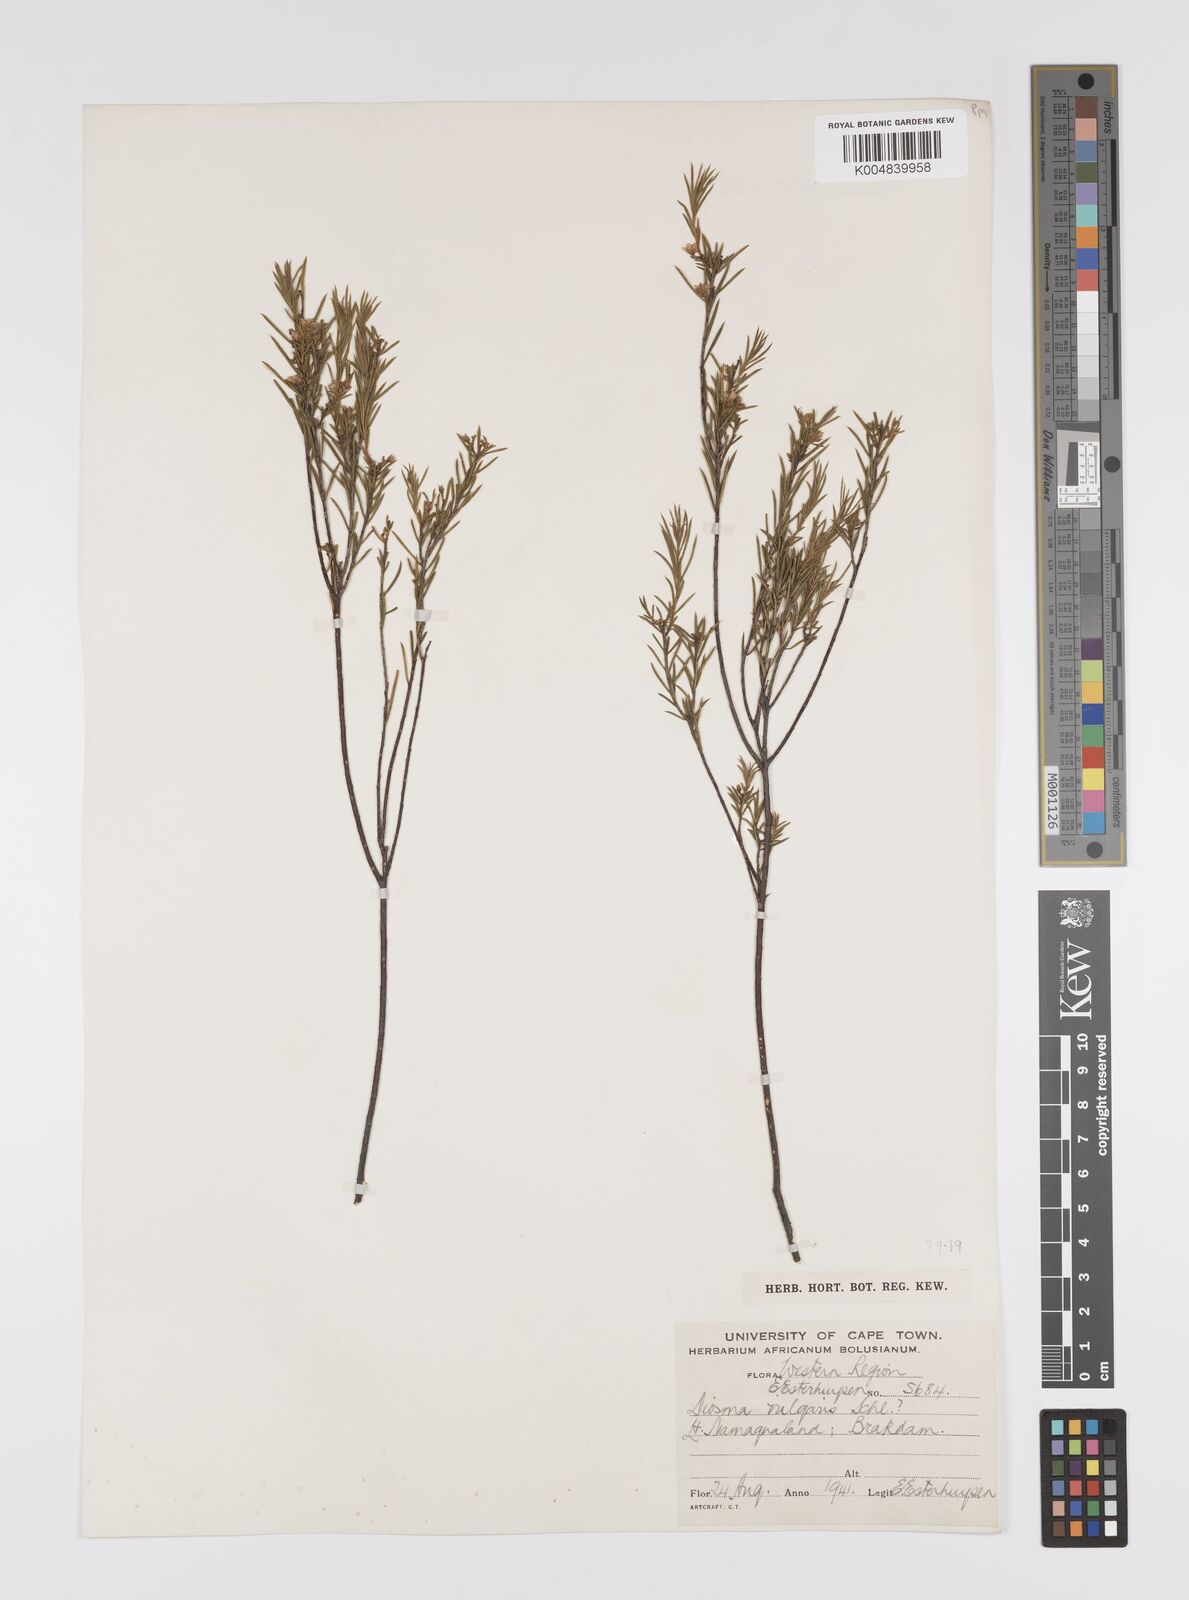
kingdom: Plantae
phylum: Tracheophyta
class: Magnoliopsida
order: Sapindales
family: Rutaceae
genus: Diosma
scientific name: Diosma acmaeophylla
